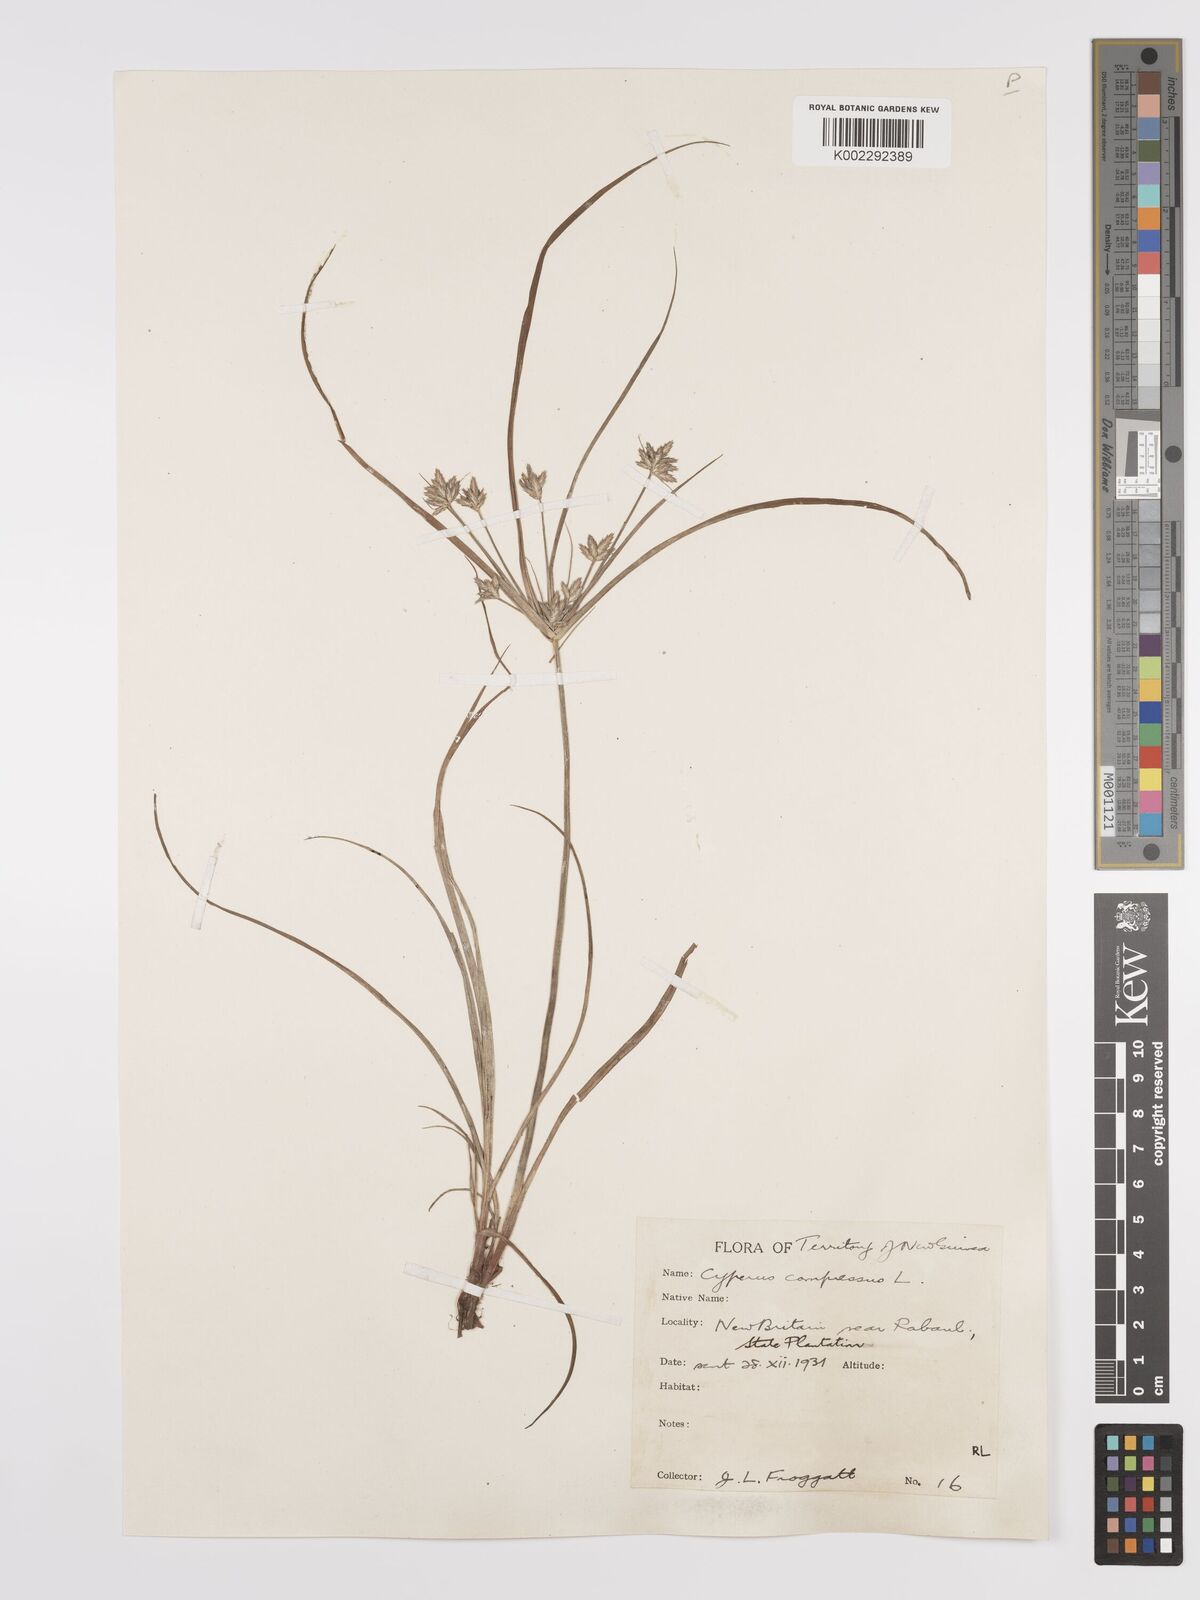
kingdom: Plantae
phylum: Tracheophyta
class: Liliopsida
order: Poales
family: Cyperaceae
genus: Cyperus
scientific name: Cyperus compressus
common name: Poorland flatsedge
